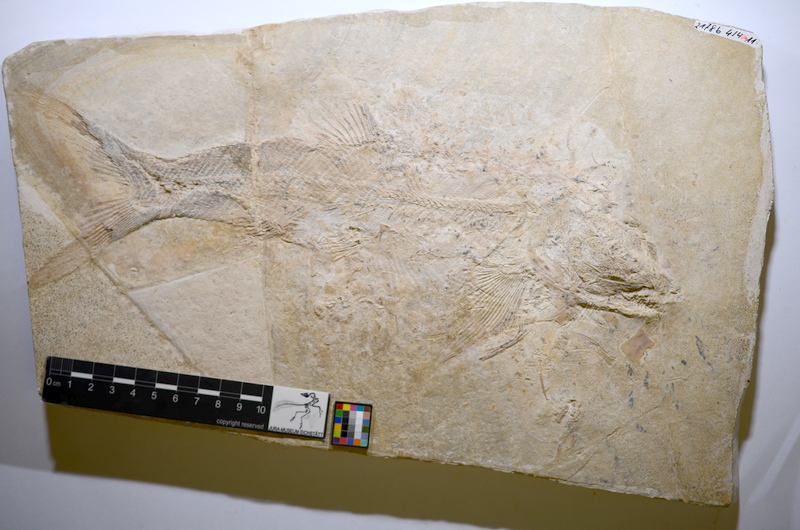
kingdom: Animalia
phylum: Chordata
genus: Elongofuro
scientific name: Elongofuro
